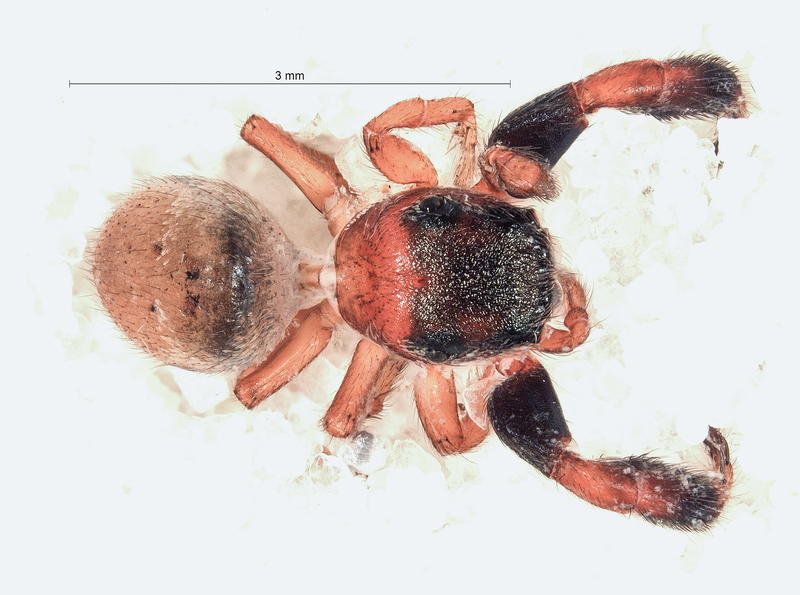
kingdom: Animalia
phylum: Arthropoda
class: Arachnida
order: Araneae
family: Salticidae
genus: Sibianor
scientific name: Sibianor larae
